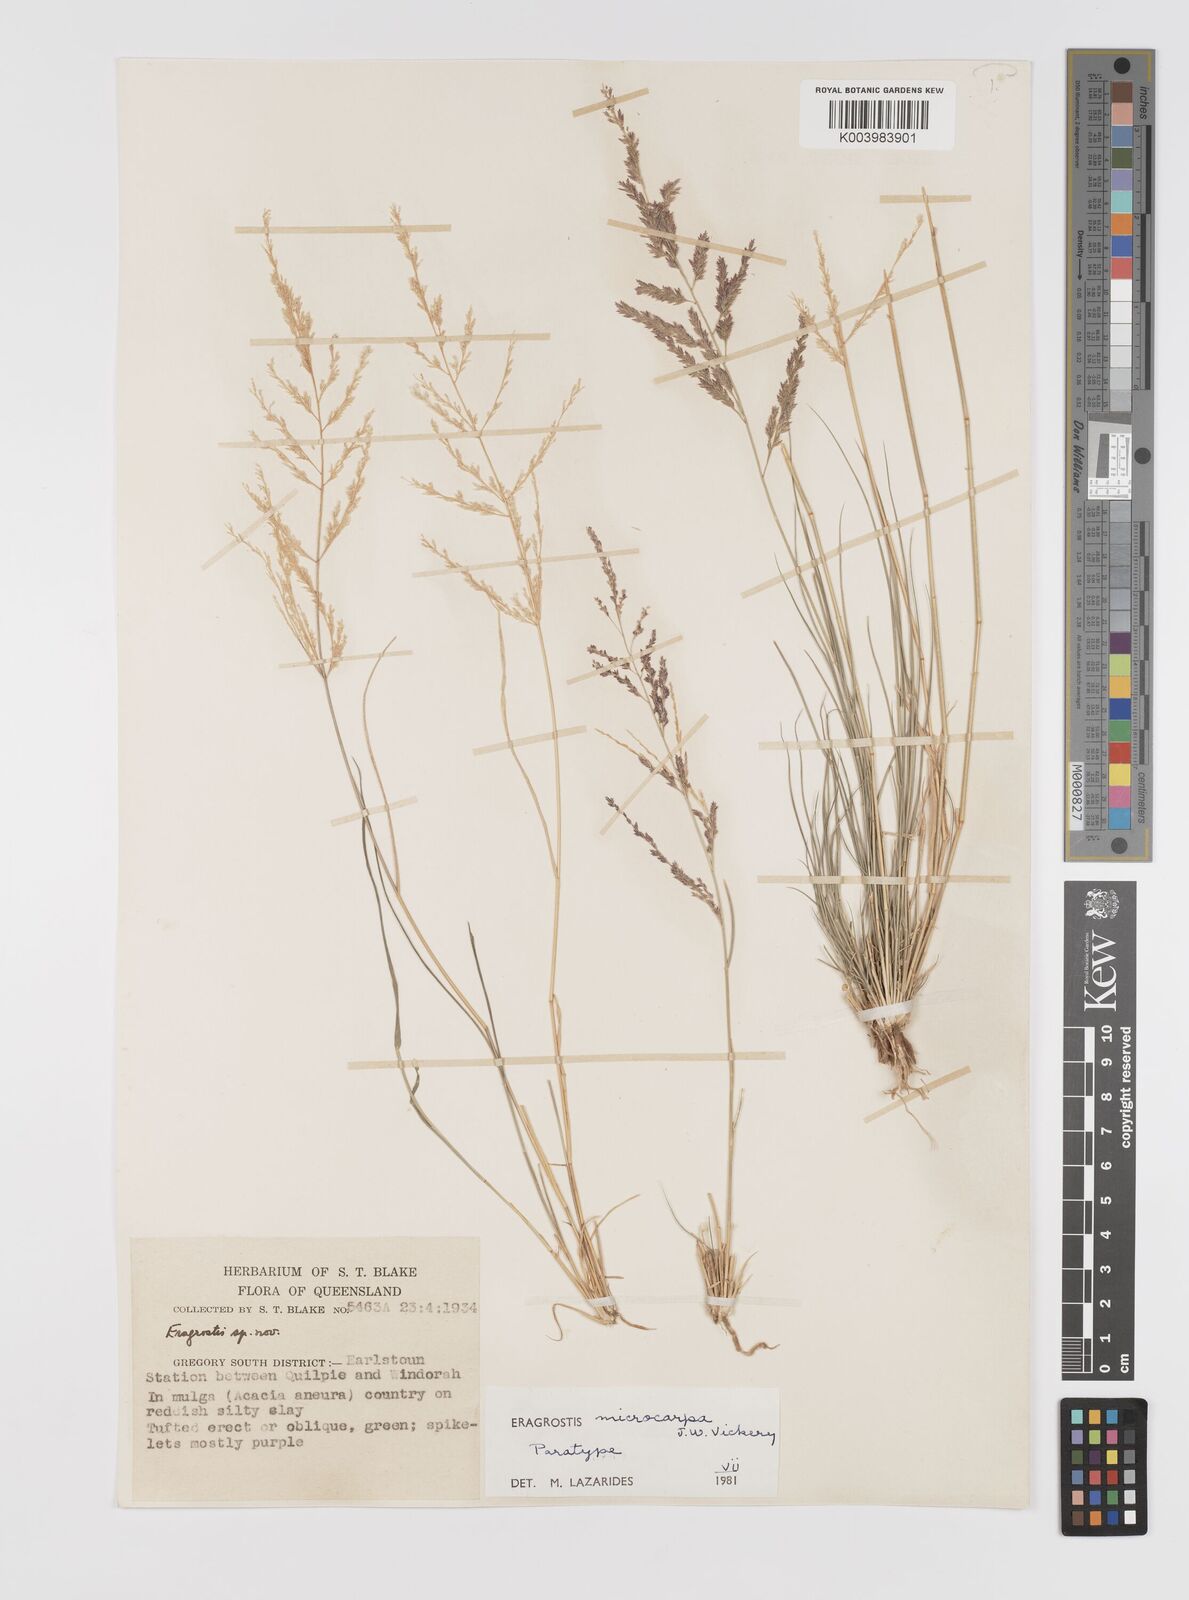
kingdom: Plantae
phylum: Tracheophyta
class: Liliopsida
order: Poales
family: Poaceae
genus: Eragrostis
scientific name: Eragrostis microcarpa
